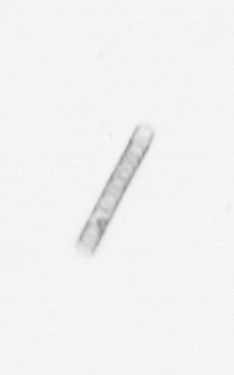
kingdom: Chromista
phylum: Ochrophyta
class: Bacillariophyceae
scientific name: Bacillariophyceae
